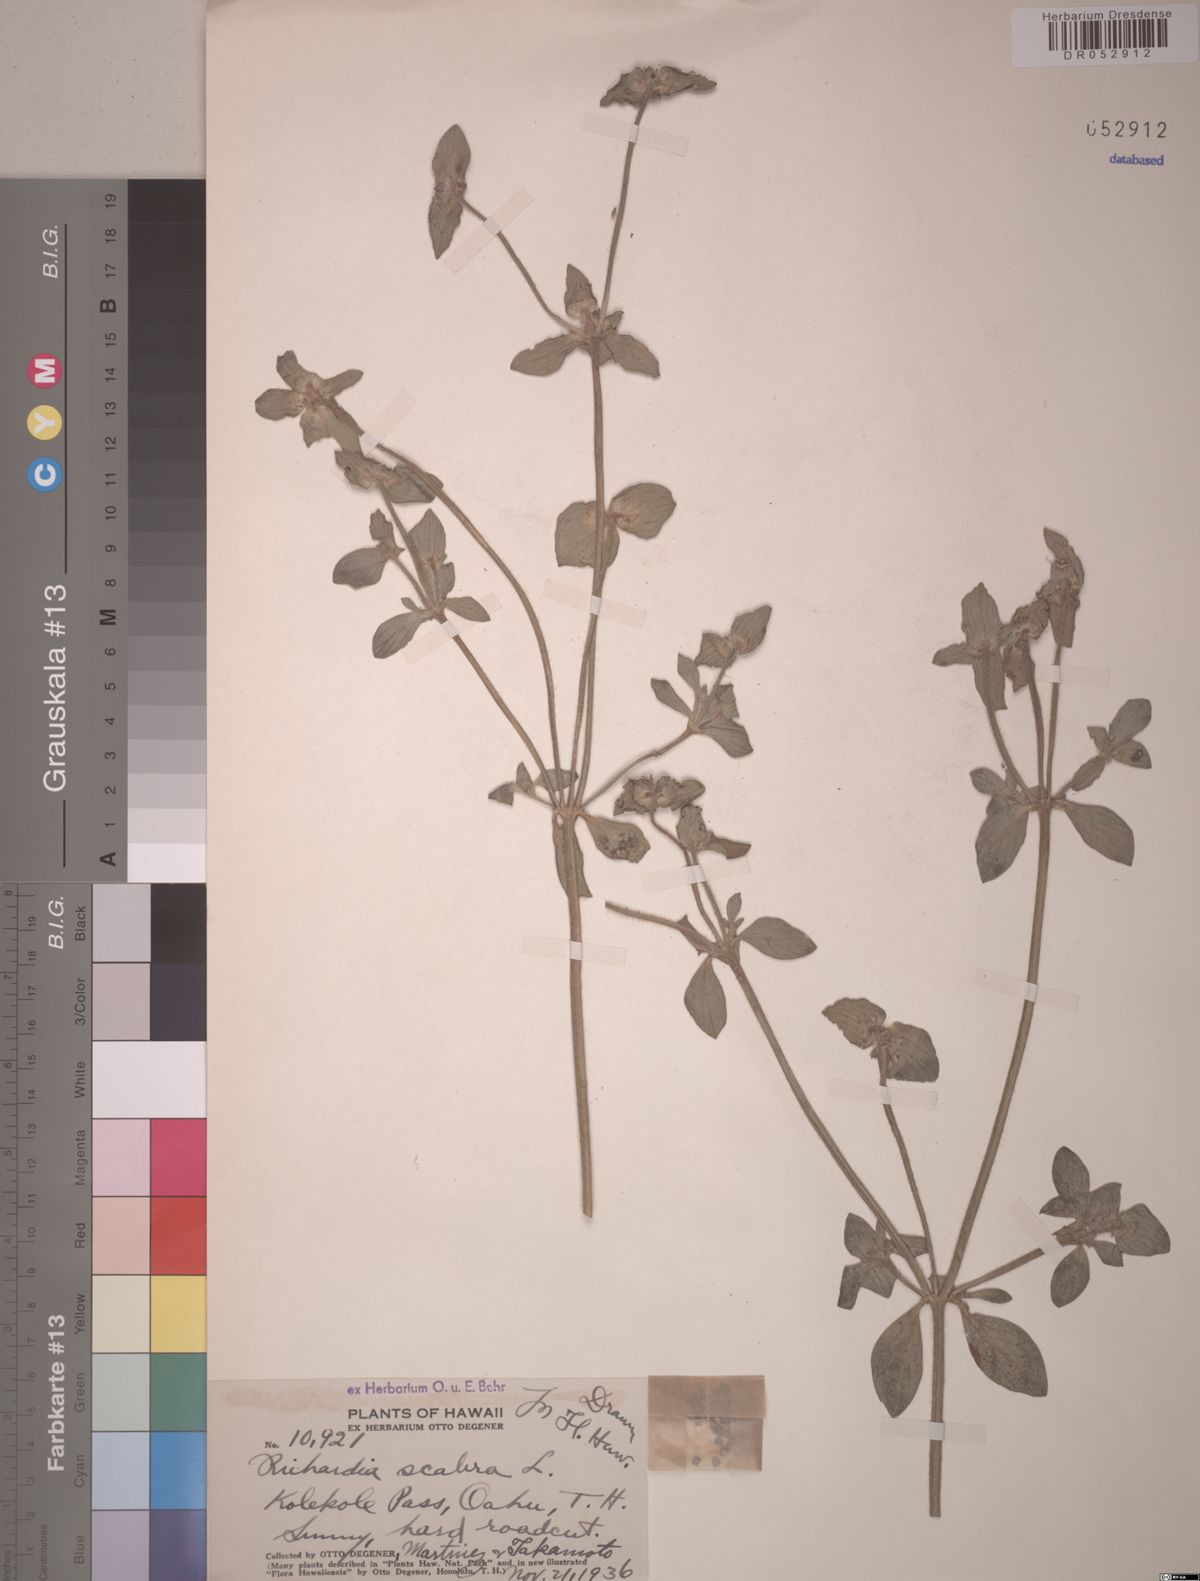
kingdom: Plantae
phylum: Tracheophyta
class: Magnoliopsida
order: Gentianales
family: Rubiaceae
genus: Richardia
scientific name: Richardia scabra
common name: Rough mexican clover
